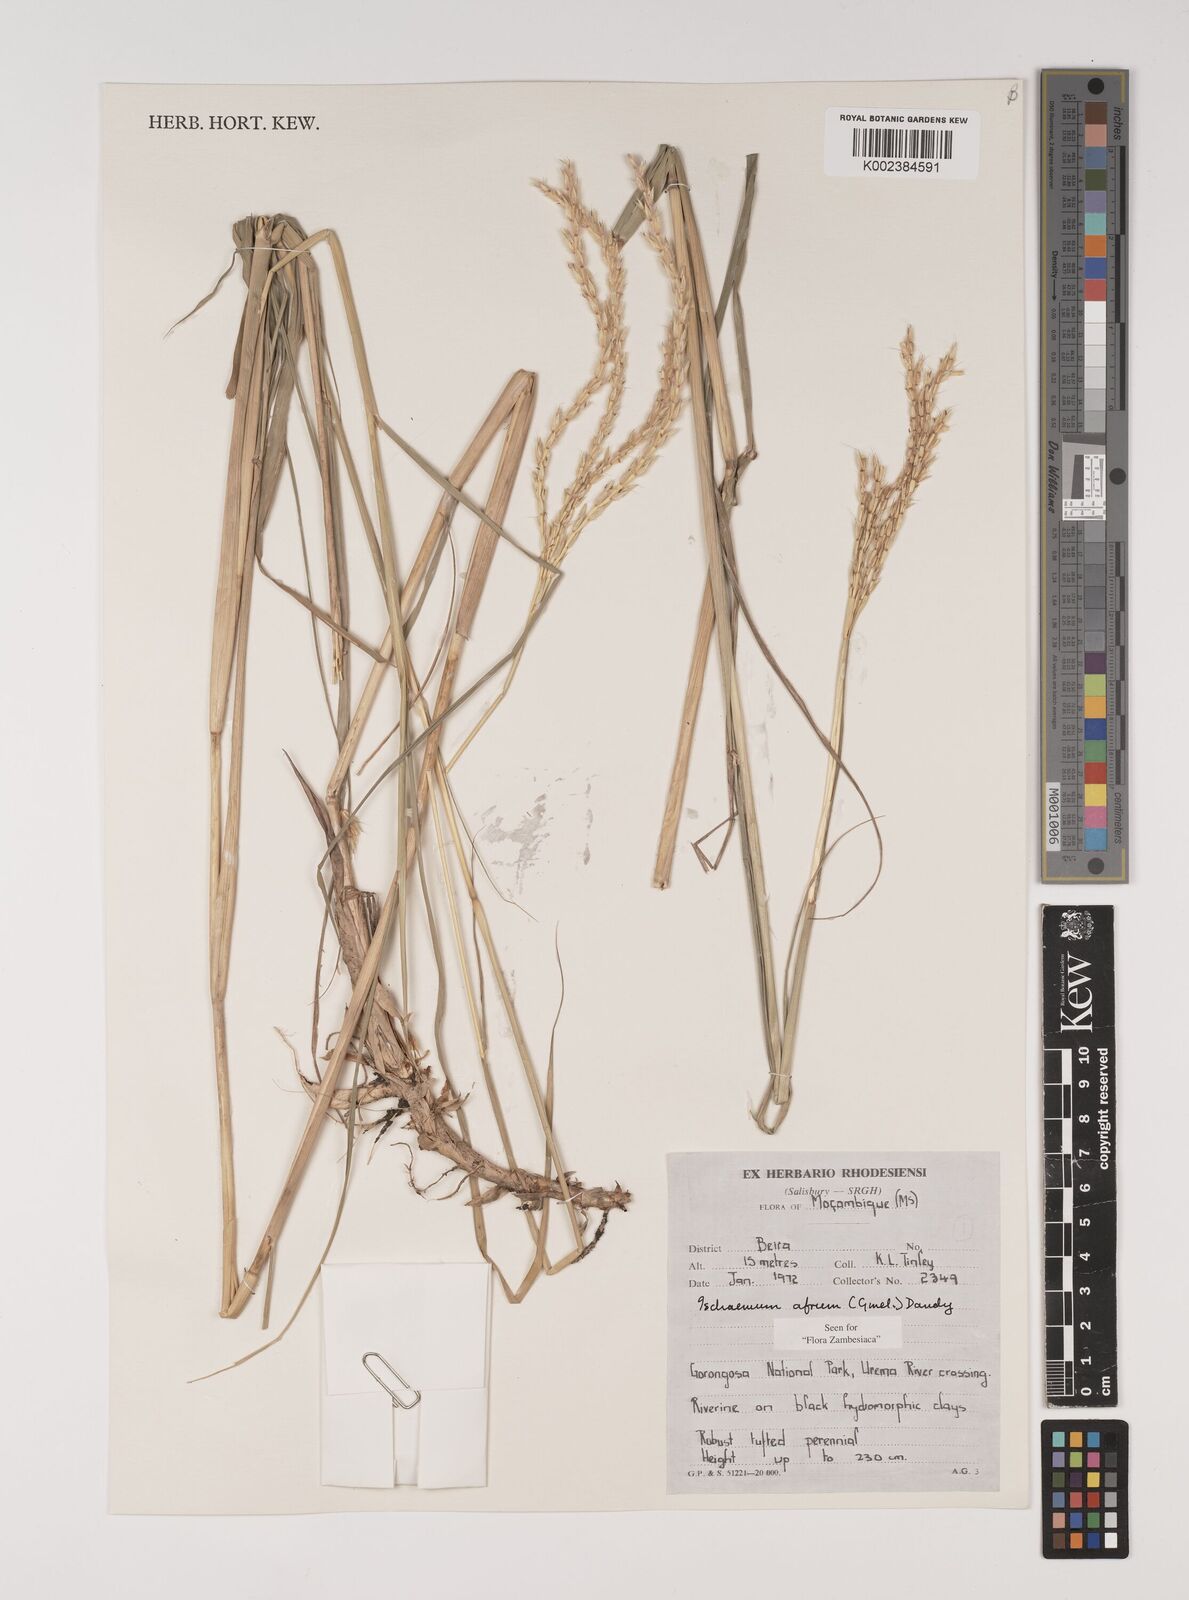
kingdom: Plantae
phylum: Tracheophyta
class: Liliopsida
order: Poales
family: Poaceae
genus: Ischaemum
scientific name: Ischaemum afrum
